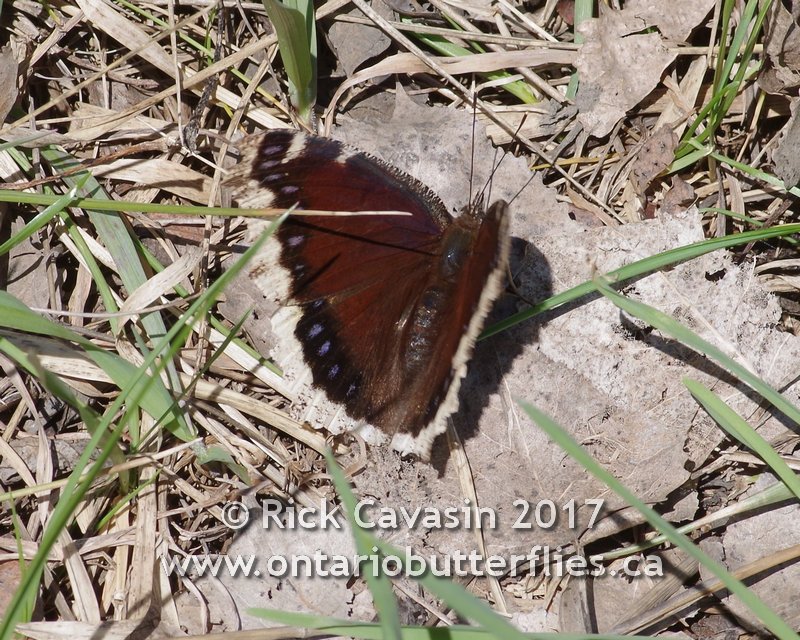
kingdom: Animalia
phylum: Arthropoda
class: Insecta
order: Lepidoptera
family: Nymphalidae
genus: Nymphalis
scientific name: Nymphalis antiopa
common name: Mourning Cloak
